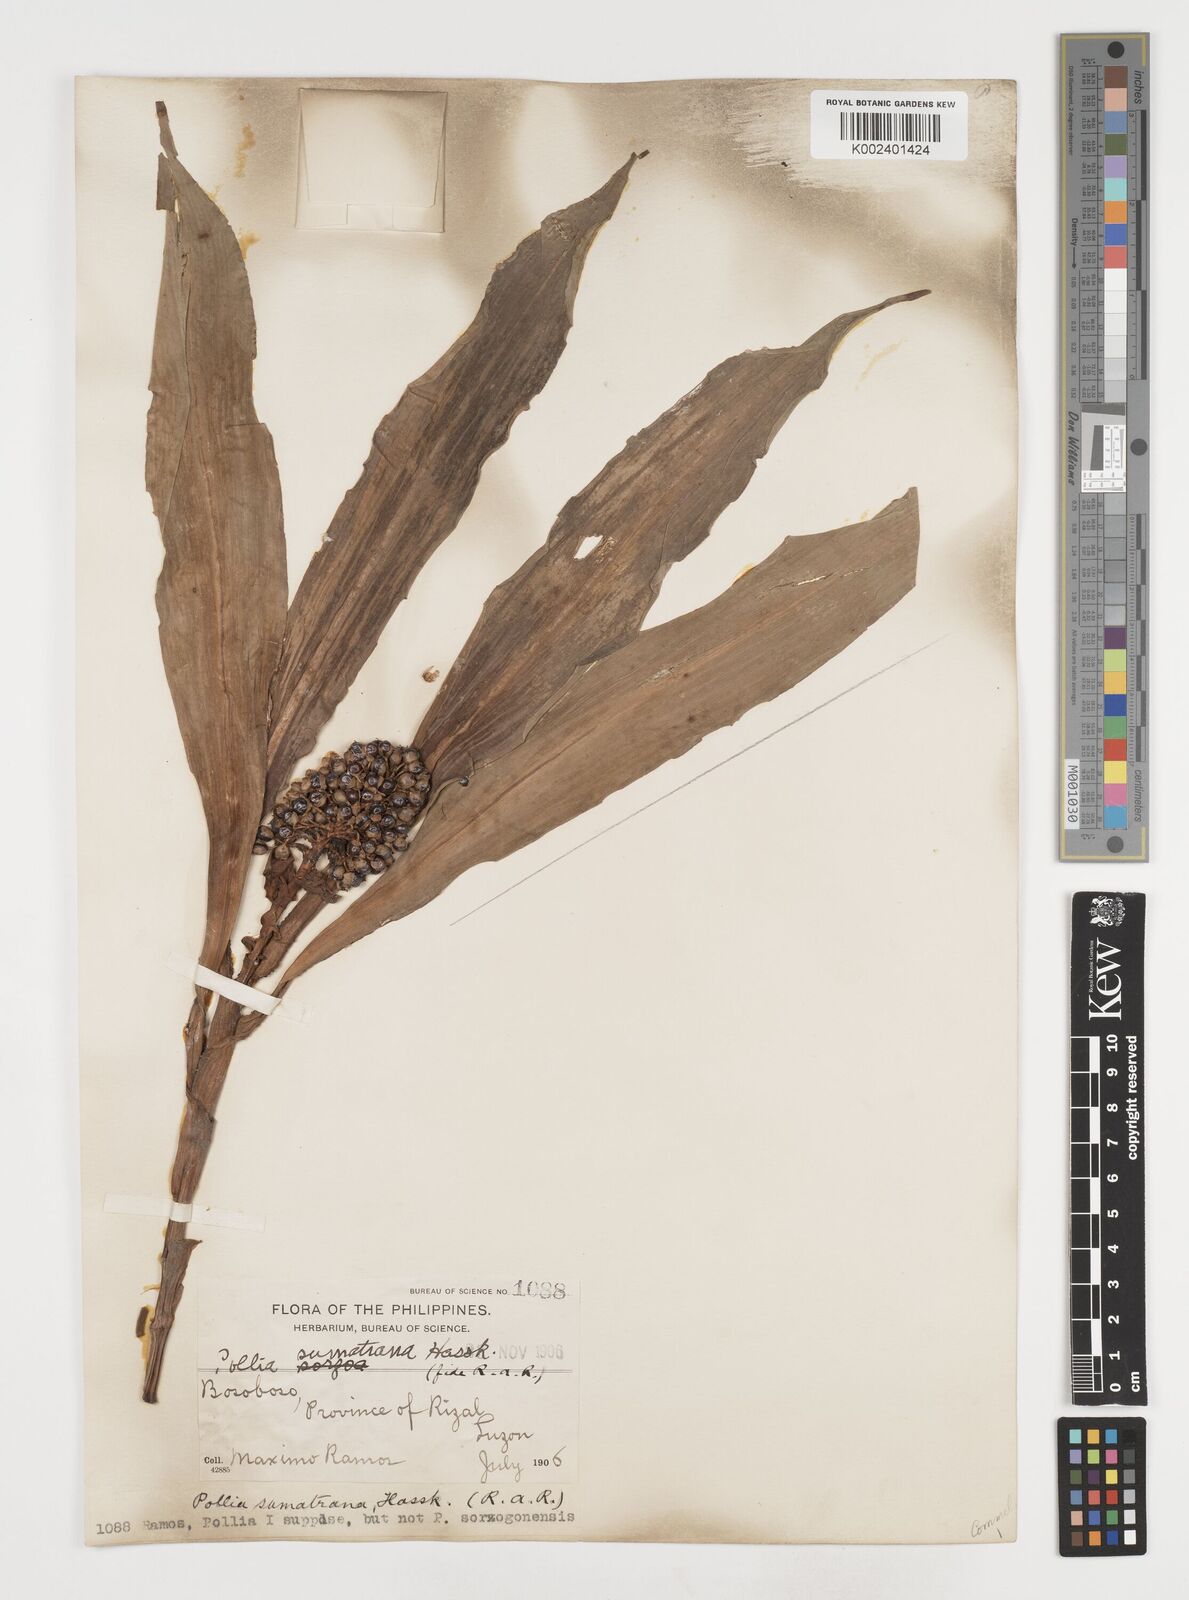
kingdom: Plantae
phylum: Tracheophyta
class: Liliopsida
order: Commelinales
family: Commelinaceae
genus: Pollia
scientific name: Pollia sumatrana
